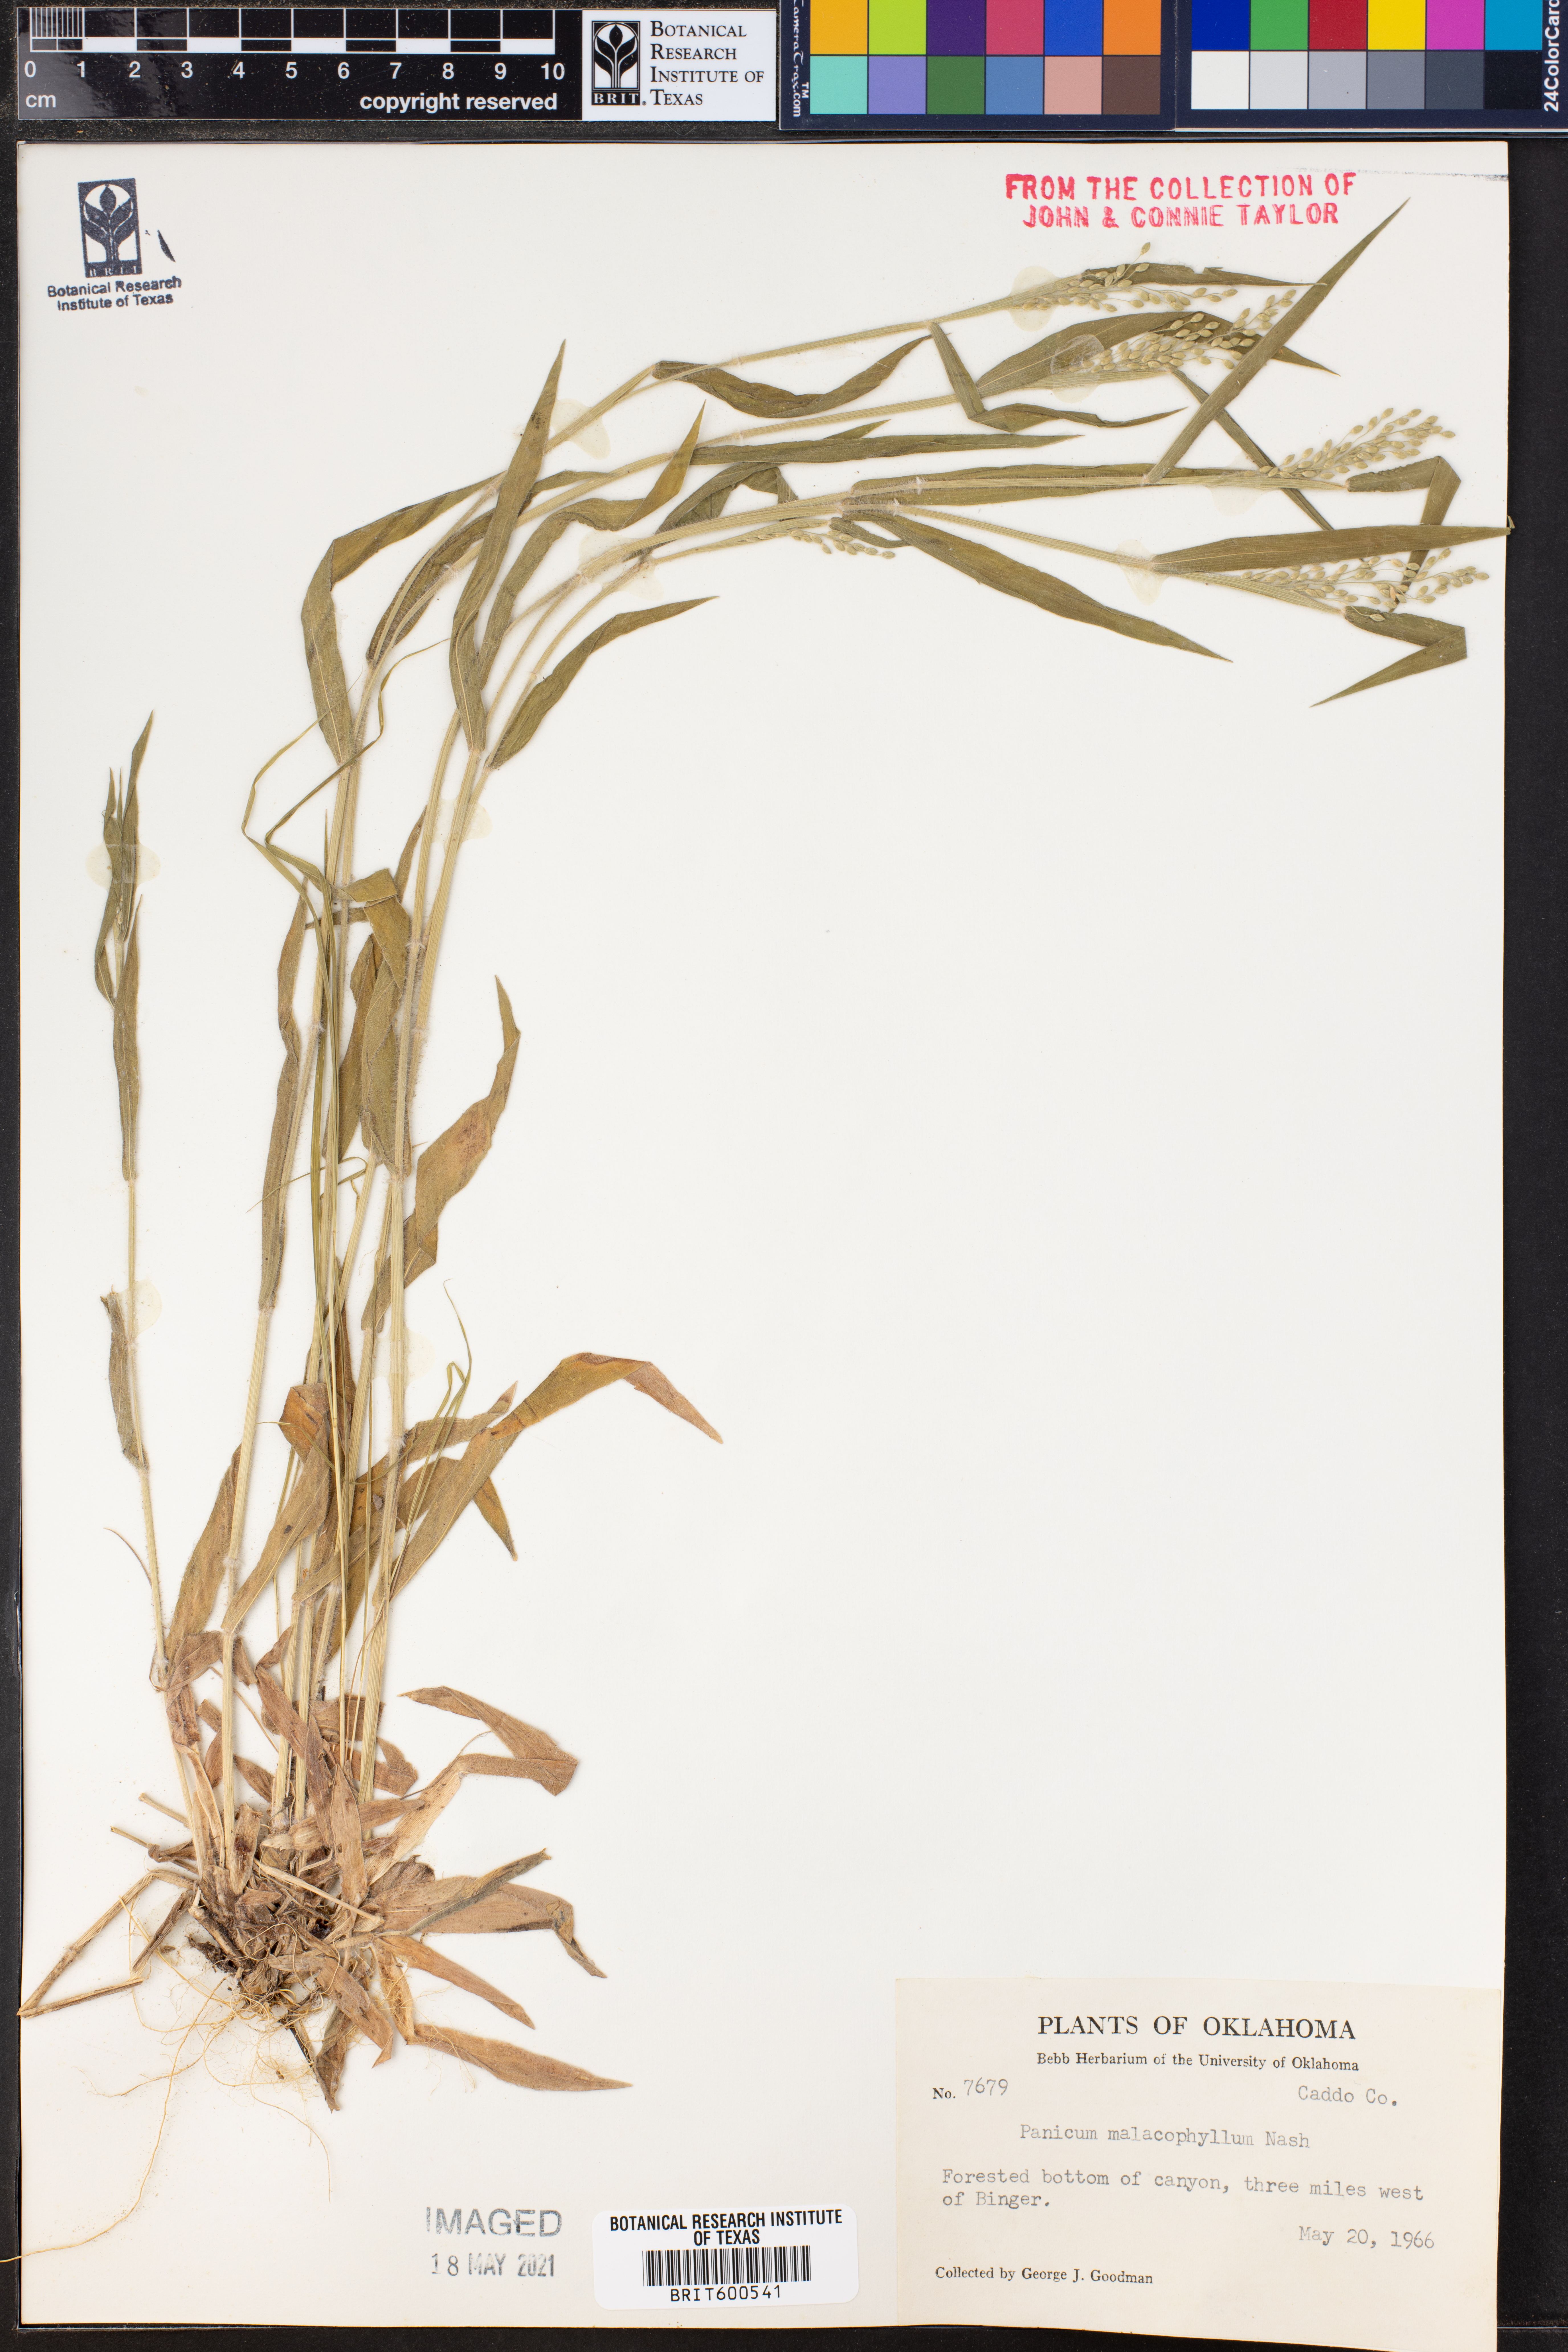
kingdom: Plantae
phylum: Tracheophyta
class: Liliopsida
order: Poales
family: Poaceae
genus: Dichanthelium
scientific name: Dichanthelium malacophyllum
